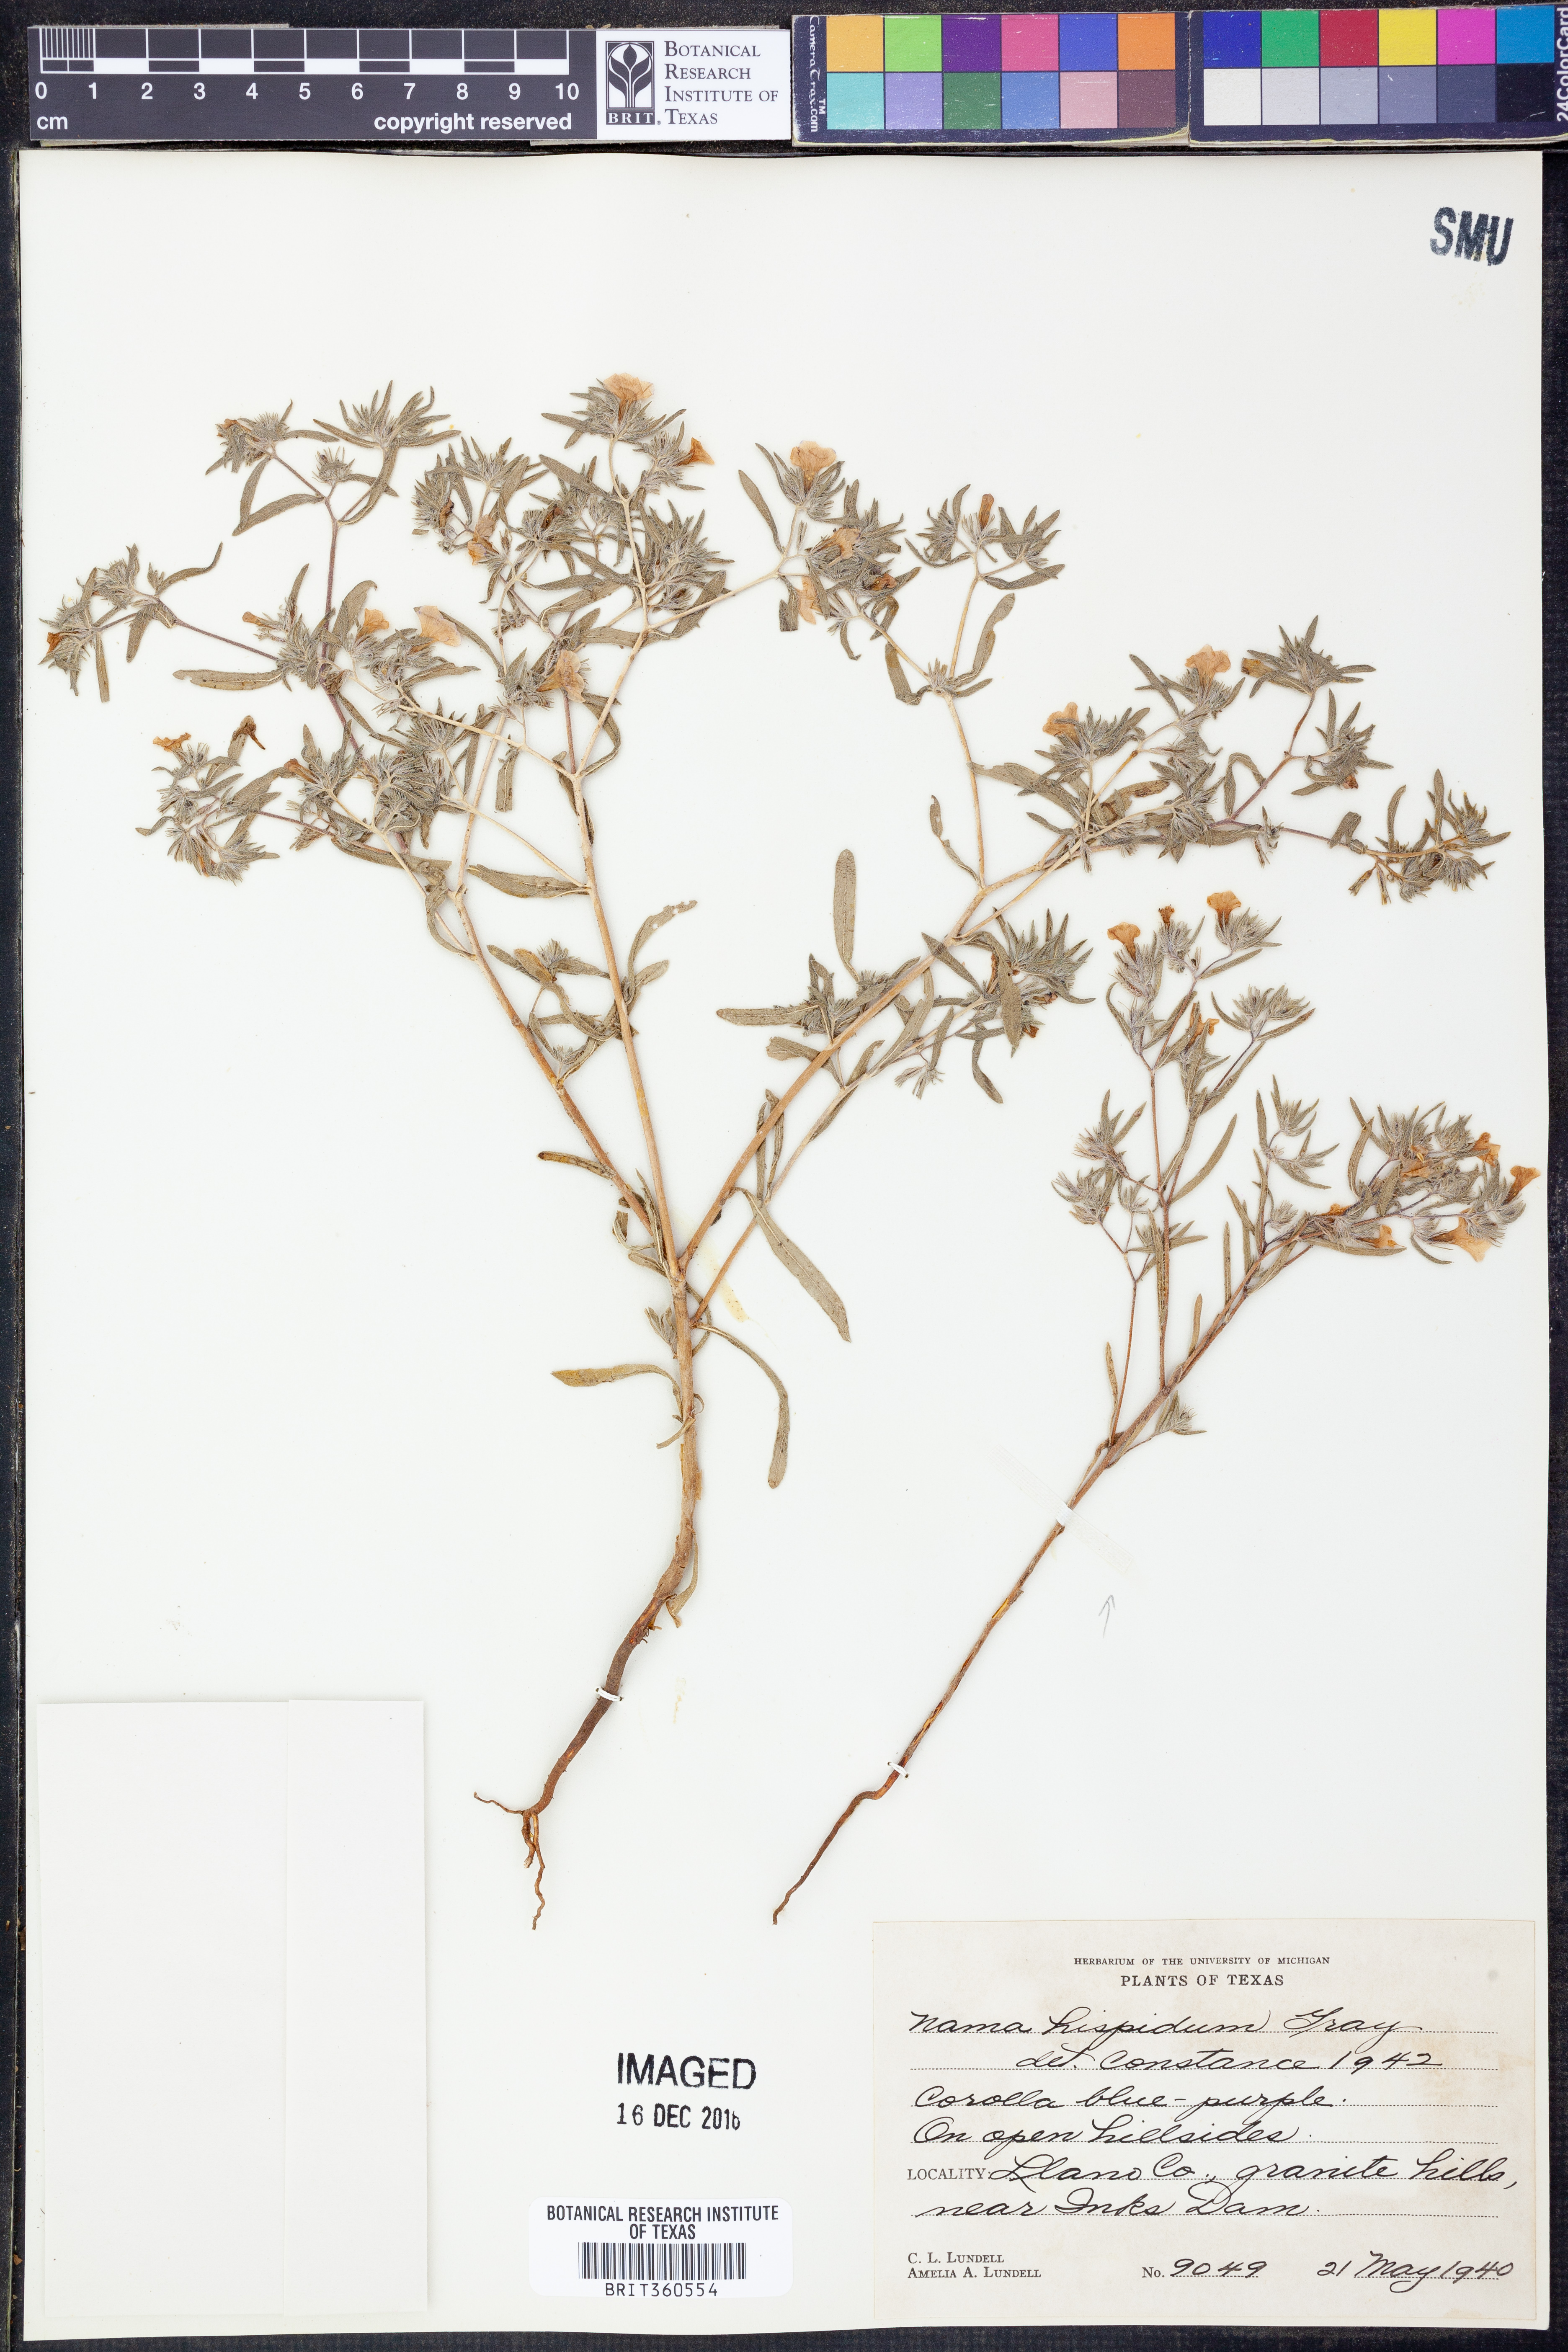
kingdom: Plantae
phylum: Tracheophyta
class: Magnoliopsida
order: Boraginales
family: Namaceae
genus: Nama
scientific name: Nama hispida
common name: Bristly nama
